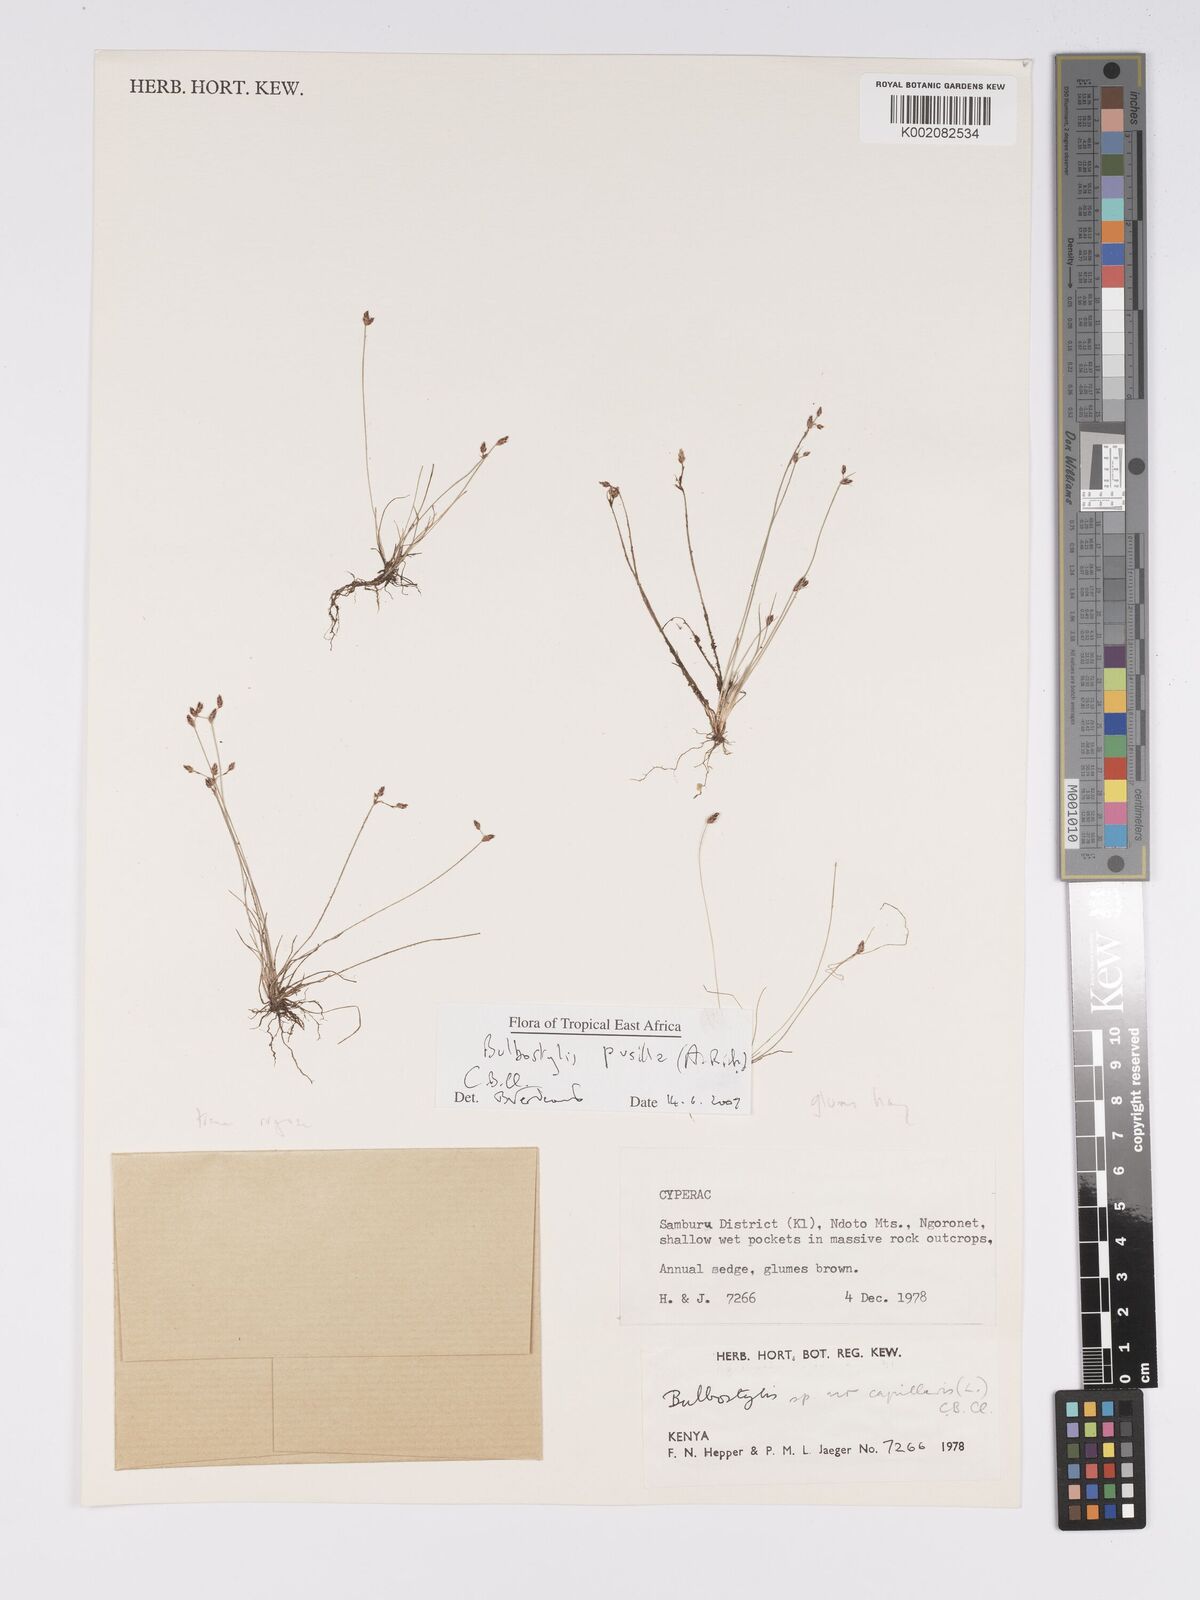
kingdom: Plantae
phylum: Tracheophyta
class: Liliopsida
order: Poales
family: Cyperaceae
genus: Bulbostylis
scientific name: Bulbostylis pusilla
